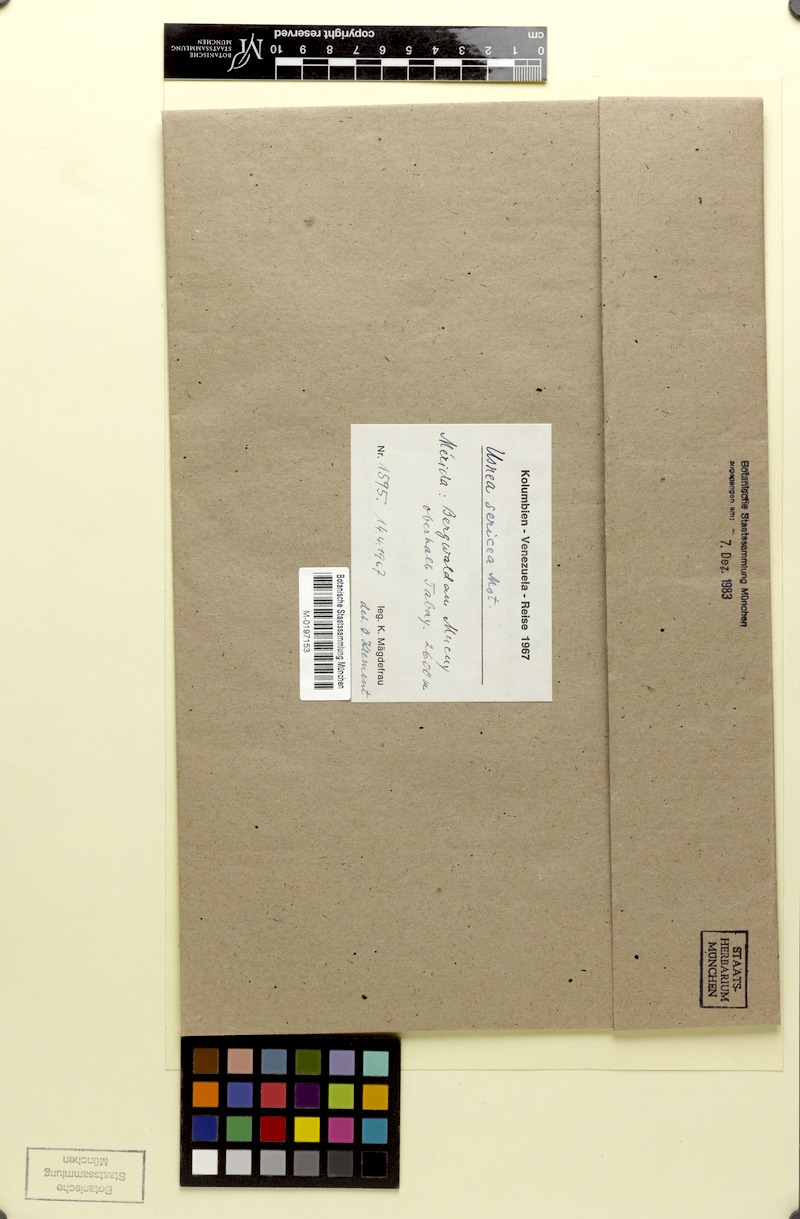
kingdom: Fungi
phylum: Ascomycota
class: Lecanoromycetes
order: Lecanorales
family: Parmeliaceae
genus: Usnea
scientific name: Usnea
